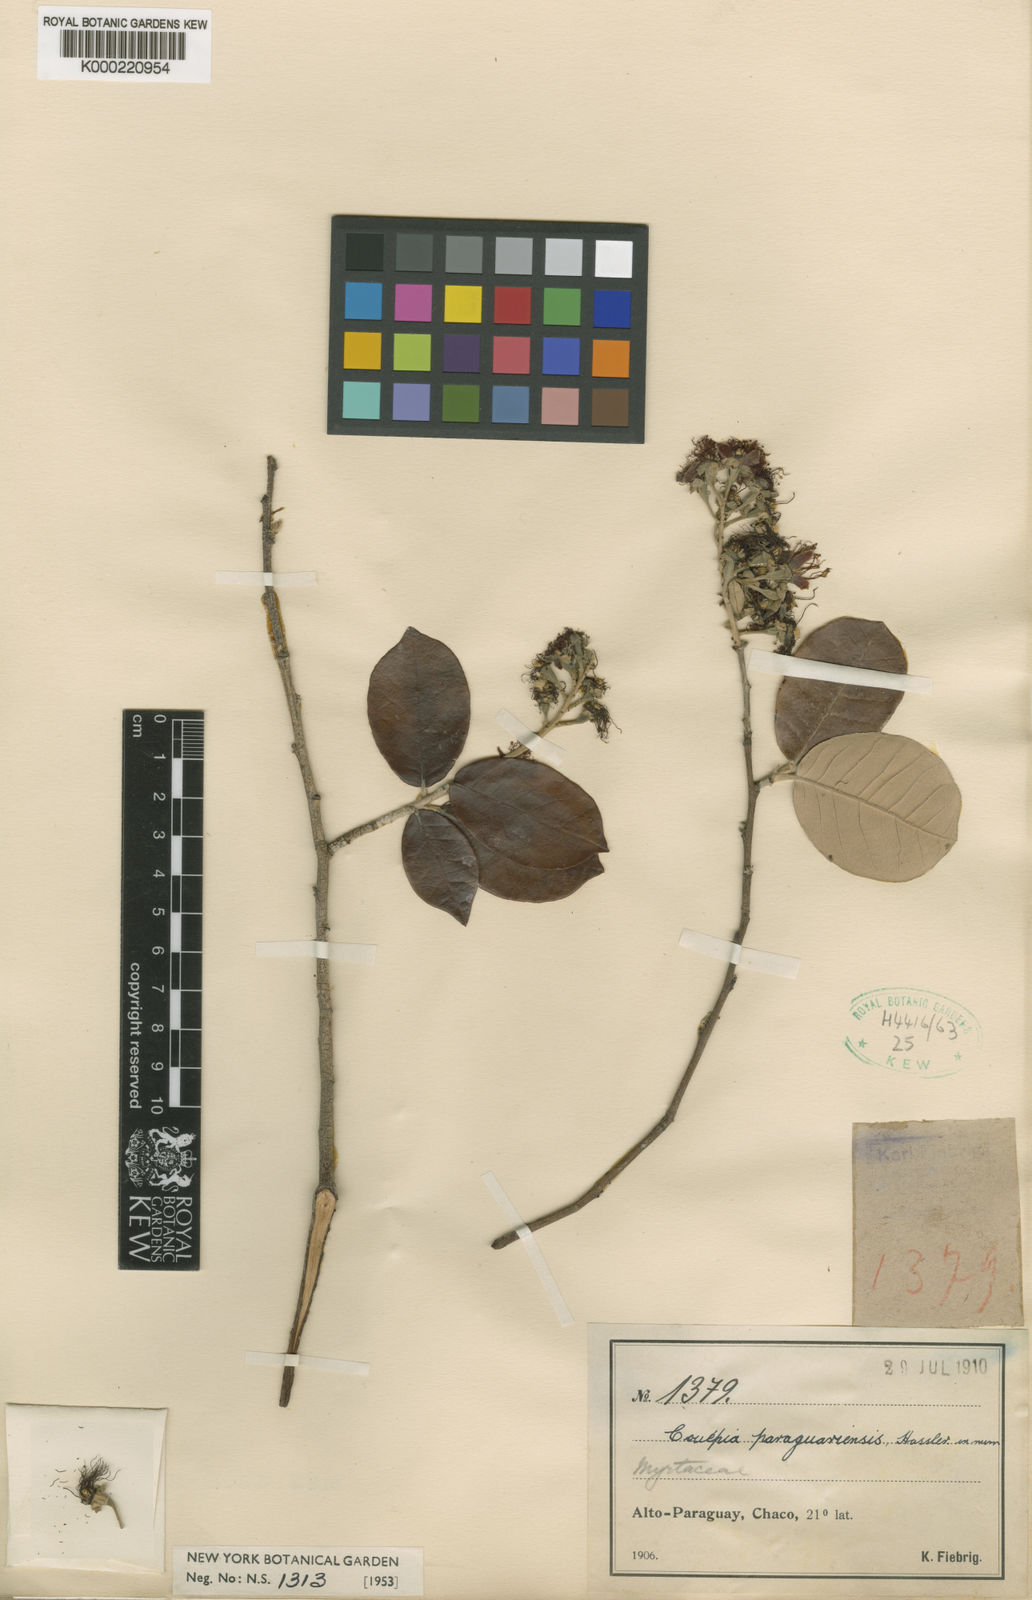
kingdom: Plantae
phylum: Tracheophyta
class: Magnoliopsida
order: Malpighiales
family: Chrysobalanaceae
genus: Couepia
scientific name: Couepia uiti
